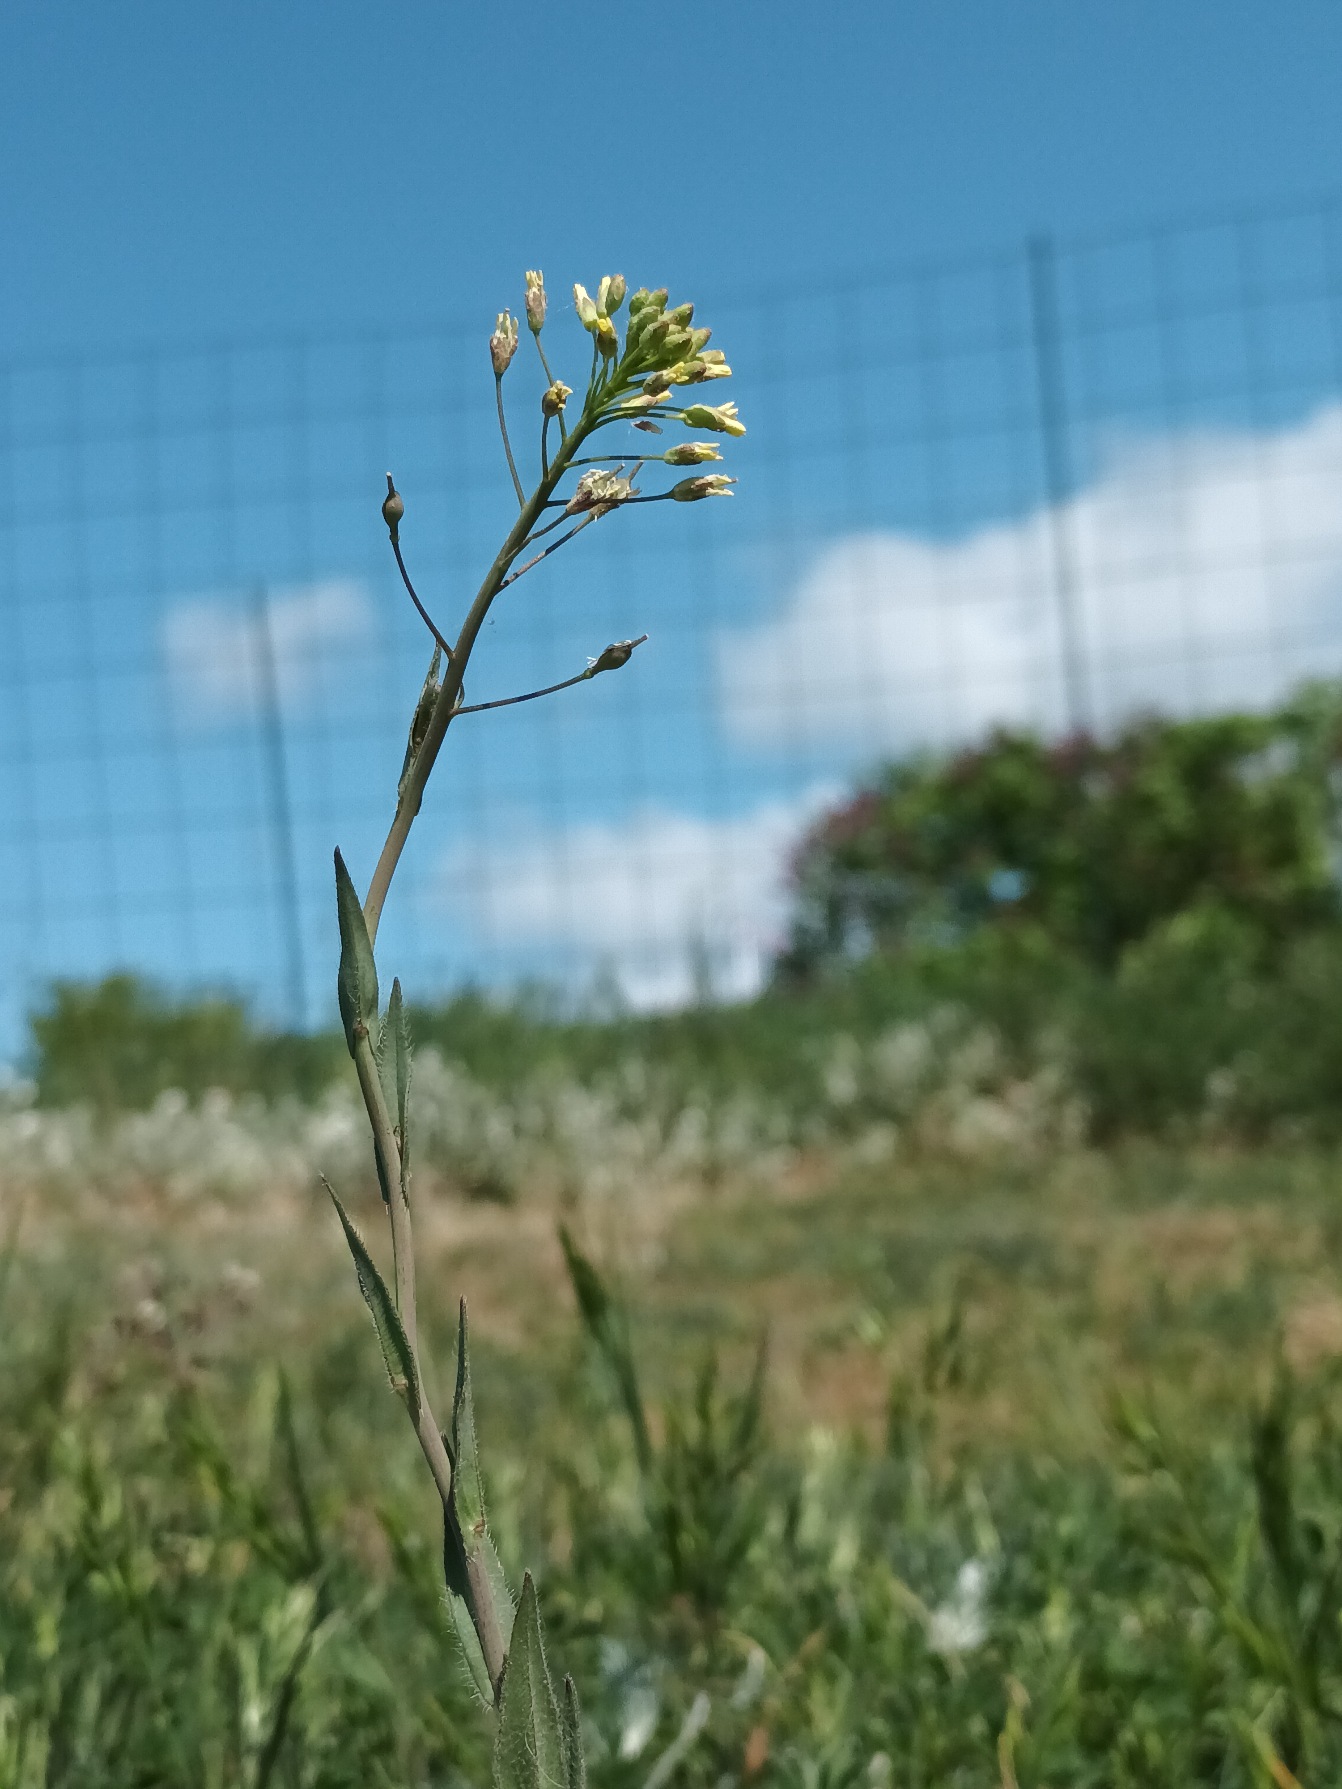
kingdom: Plantae
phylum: Tracheophyta
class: Magnoliopsida
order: Brassicales
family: Brassicaceae
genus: Camelina
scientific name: Camelina microcarpa
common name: Småskulpet dodder
